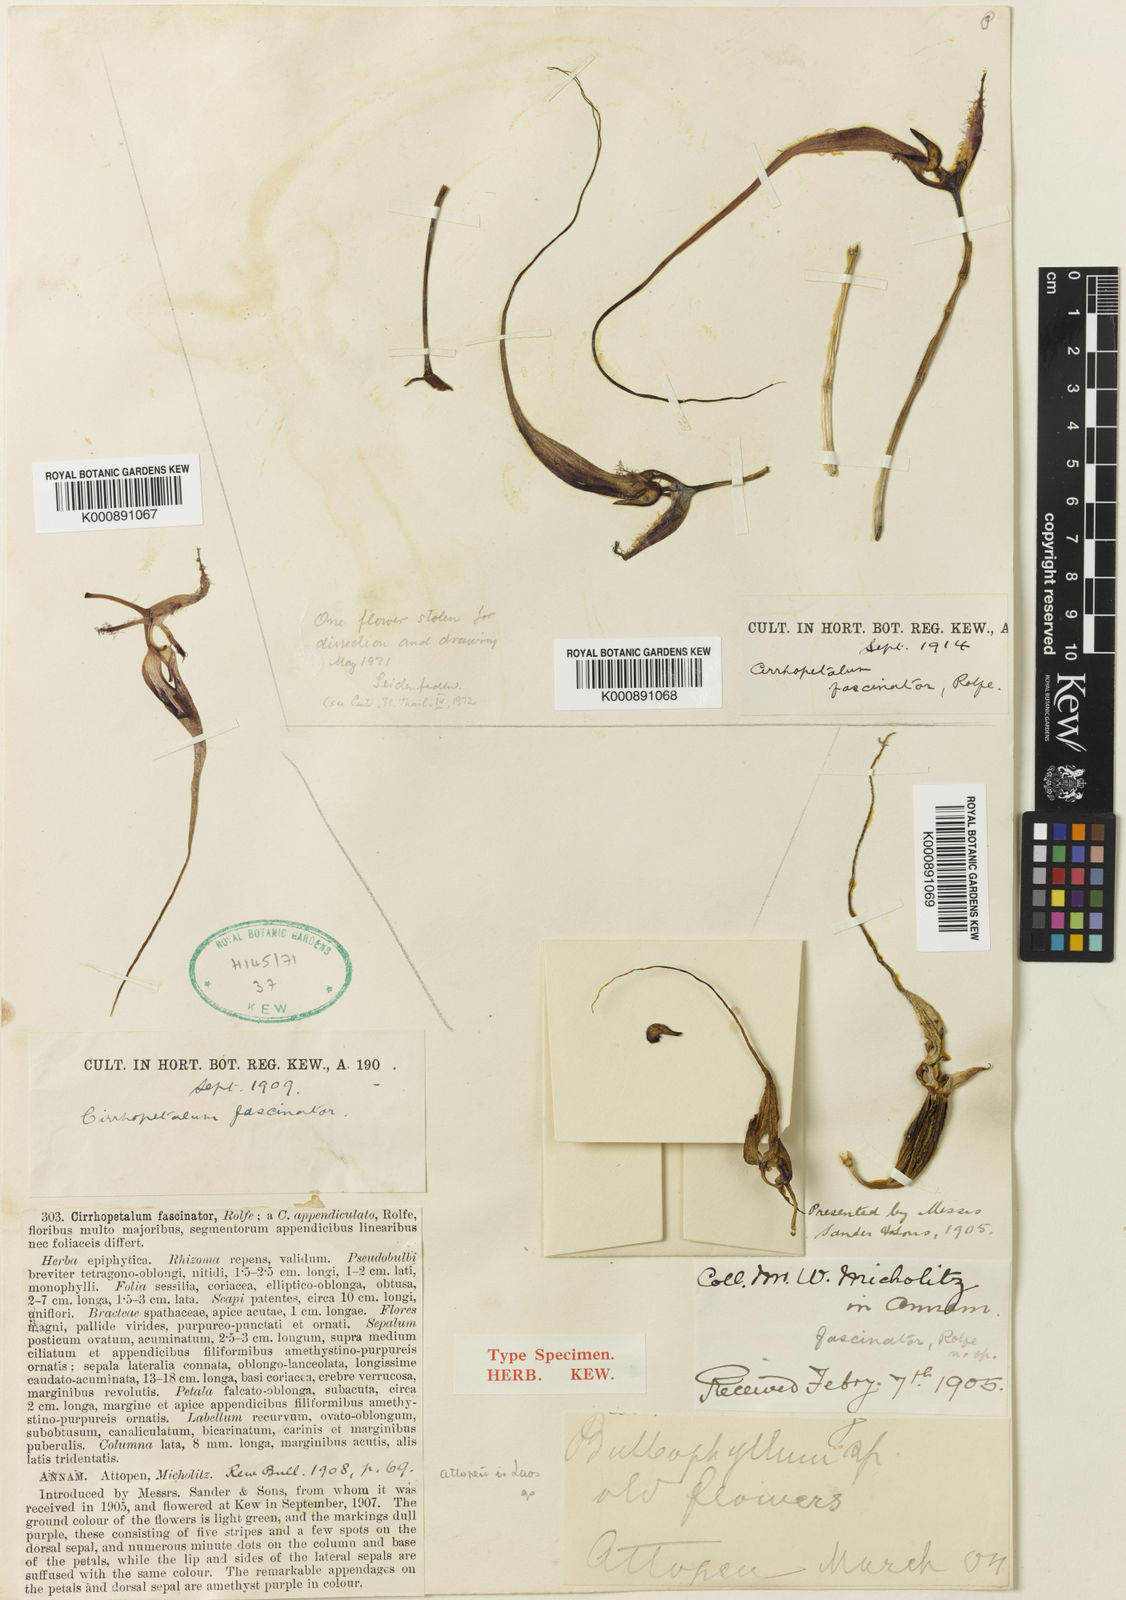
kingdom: Plantae
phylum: Tracheophyta
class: Liliopsida
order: Asparagales
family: Orchidaceae
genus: Bulbophyllum
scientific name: Bulbophyllum putidum
